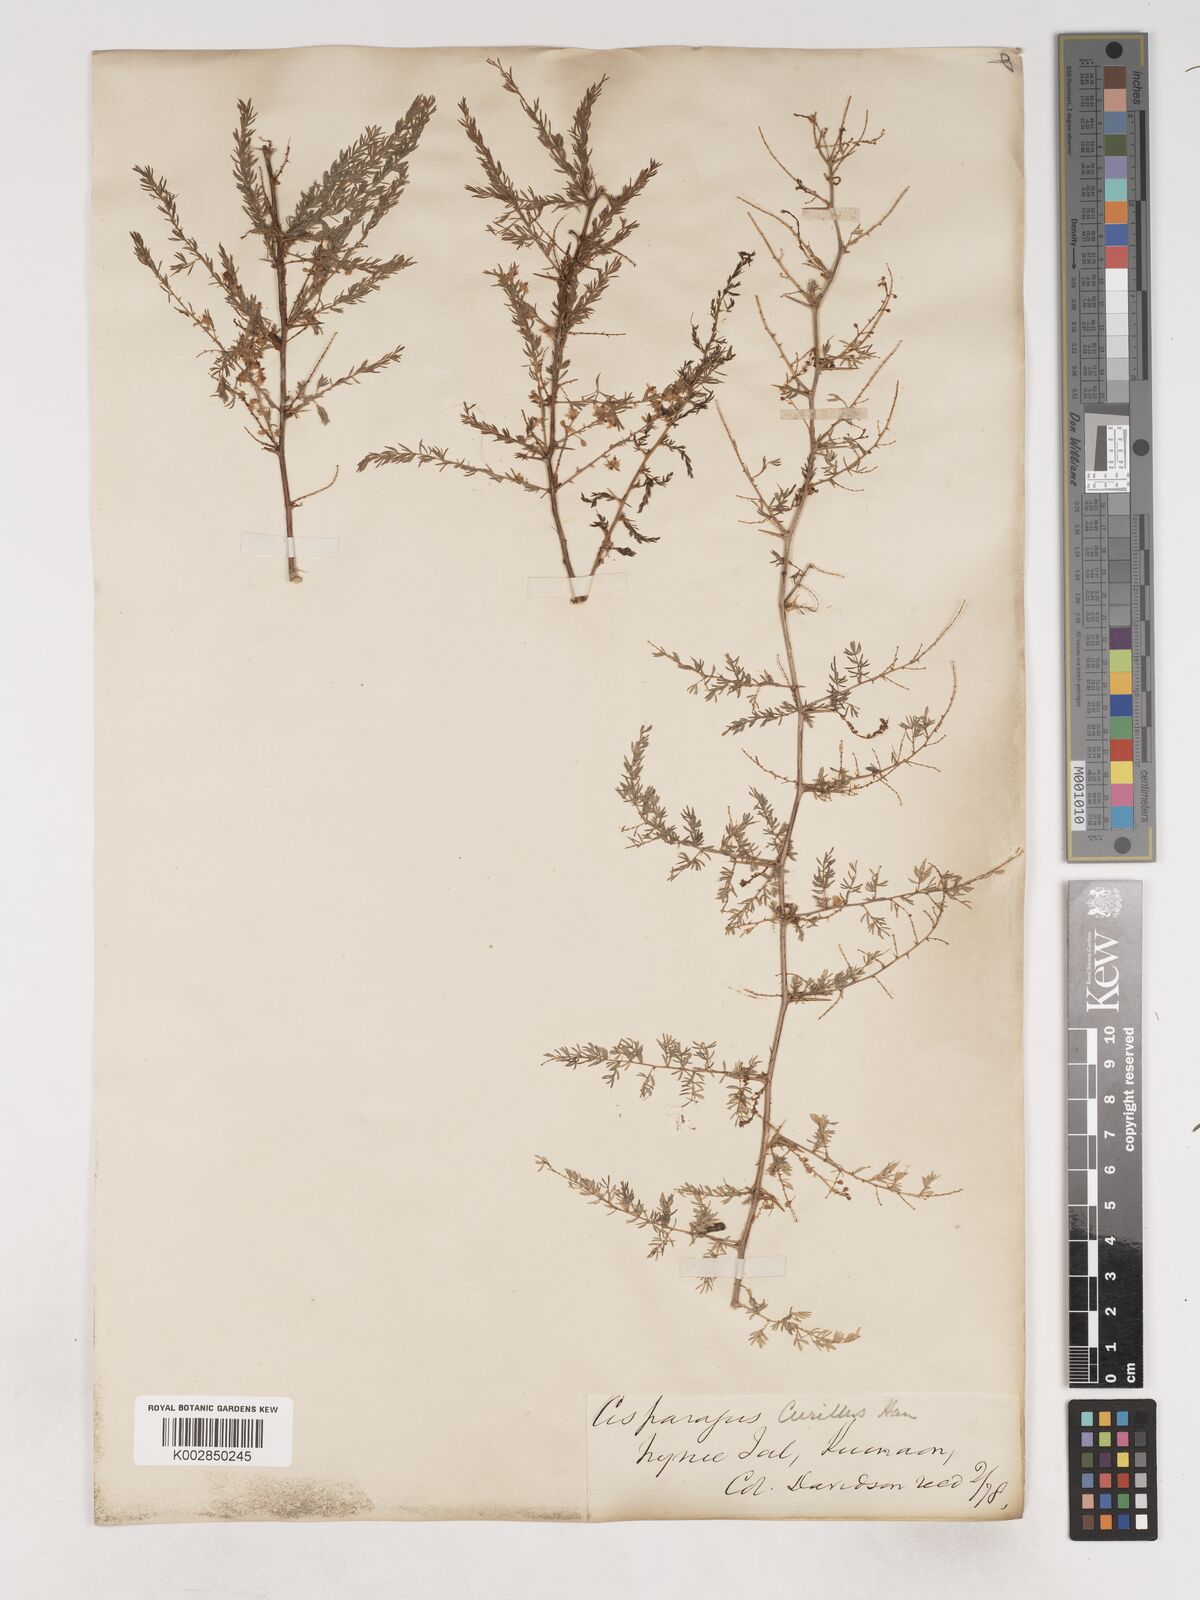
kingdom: Plantae
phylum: Tracheophyta
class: Liliopsida
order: Asparagales
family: Asparagaceae
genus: Asparagus
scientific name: Asparagus curillus
